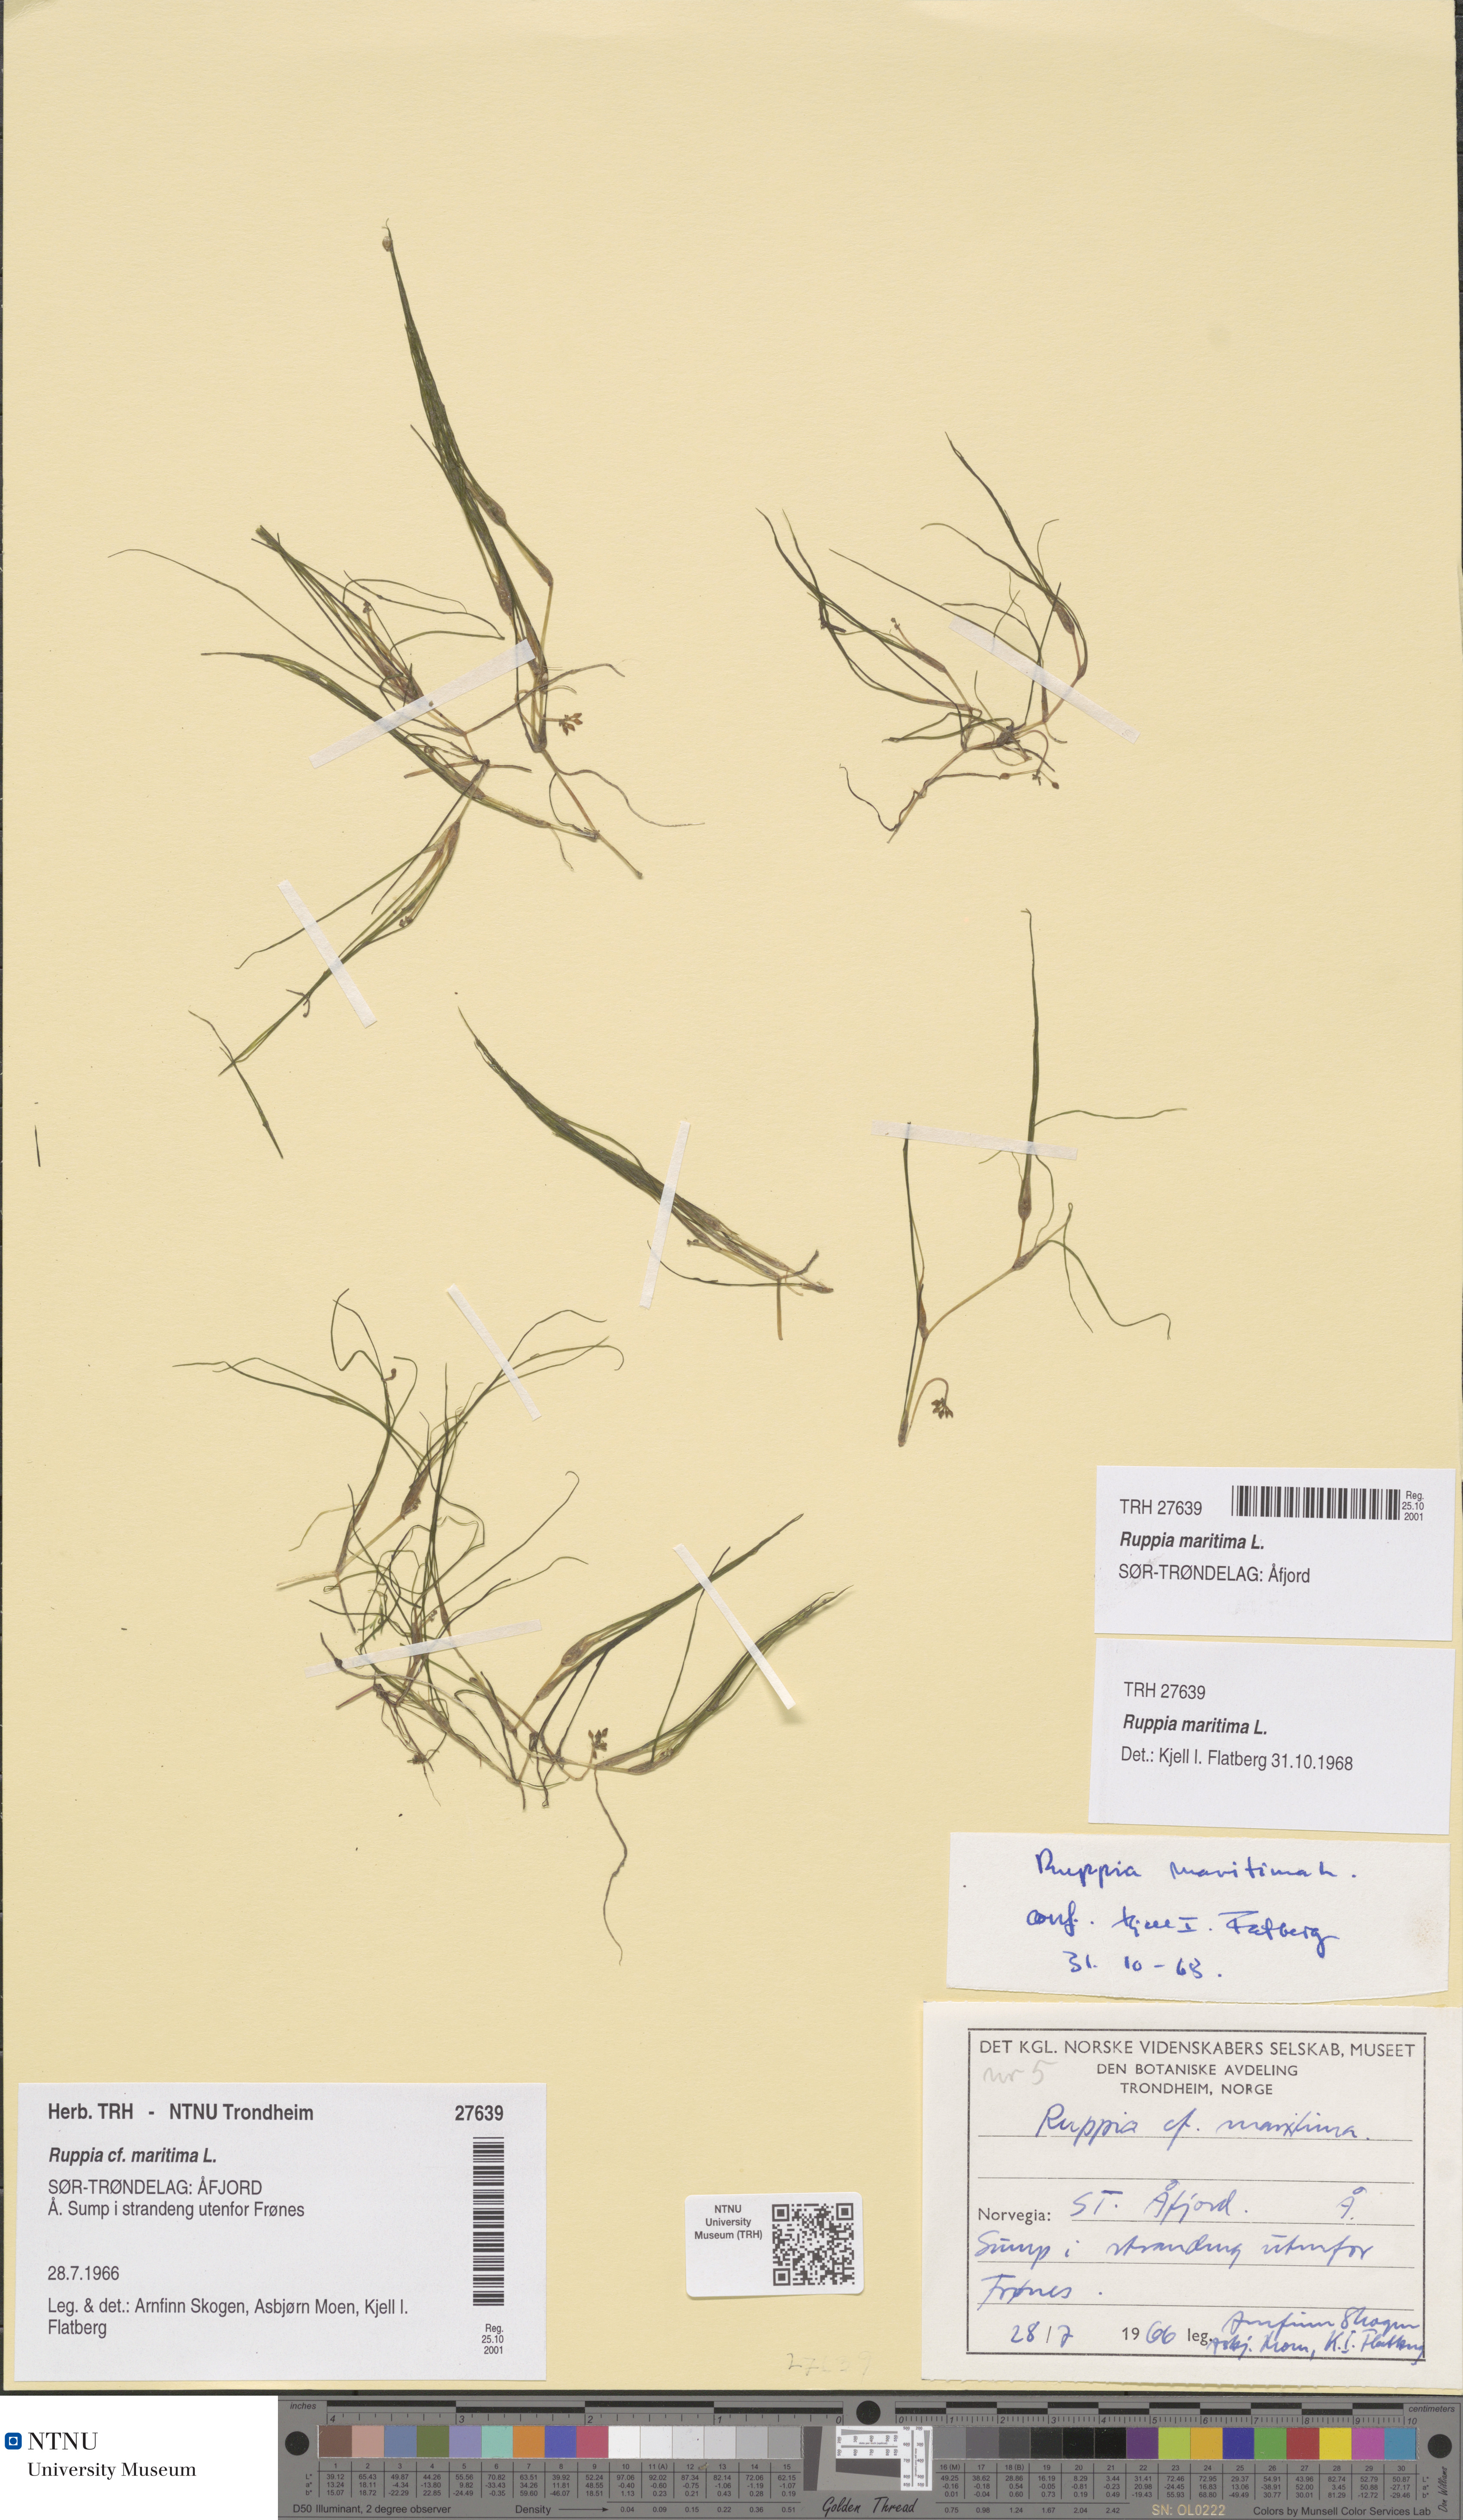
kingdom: Plantae
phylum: Tracheophyta
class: Liliopsida
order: Alismatales
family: Ruppiaceae
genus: Ruppia
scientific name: Ruppia maritima
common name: Beaked tasselweed
